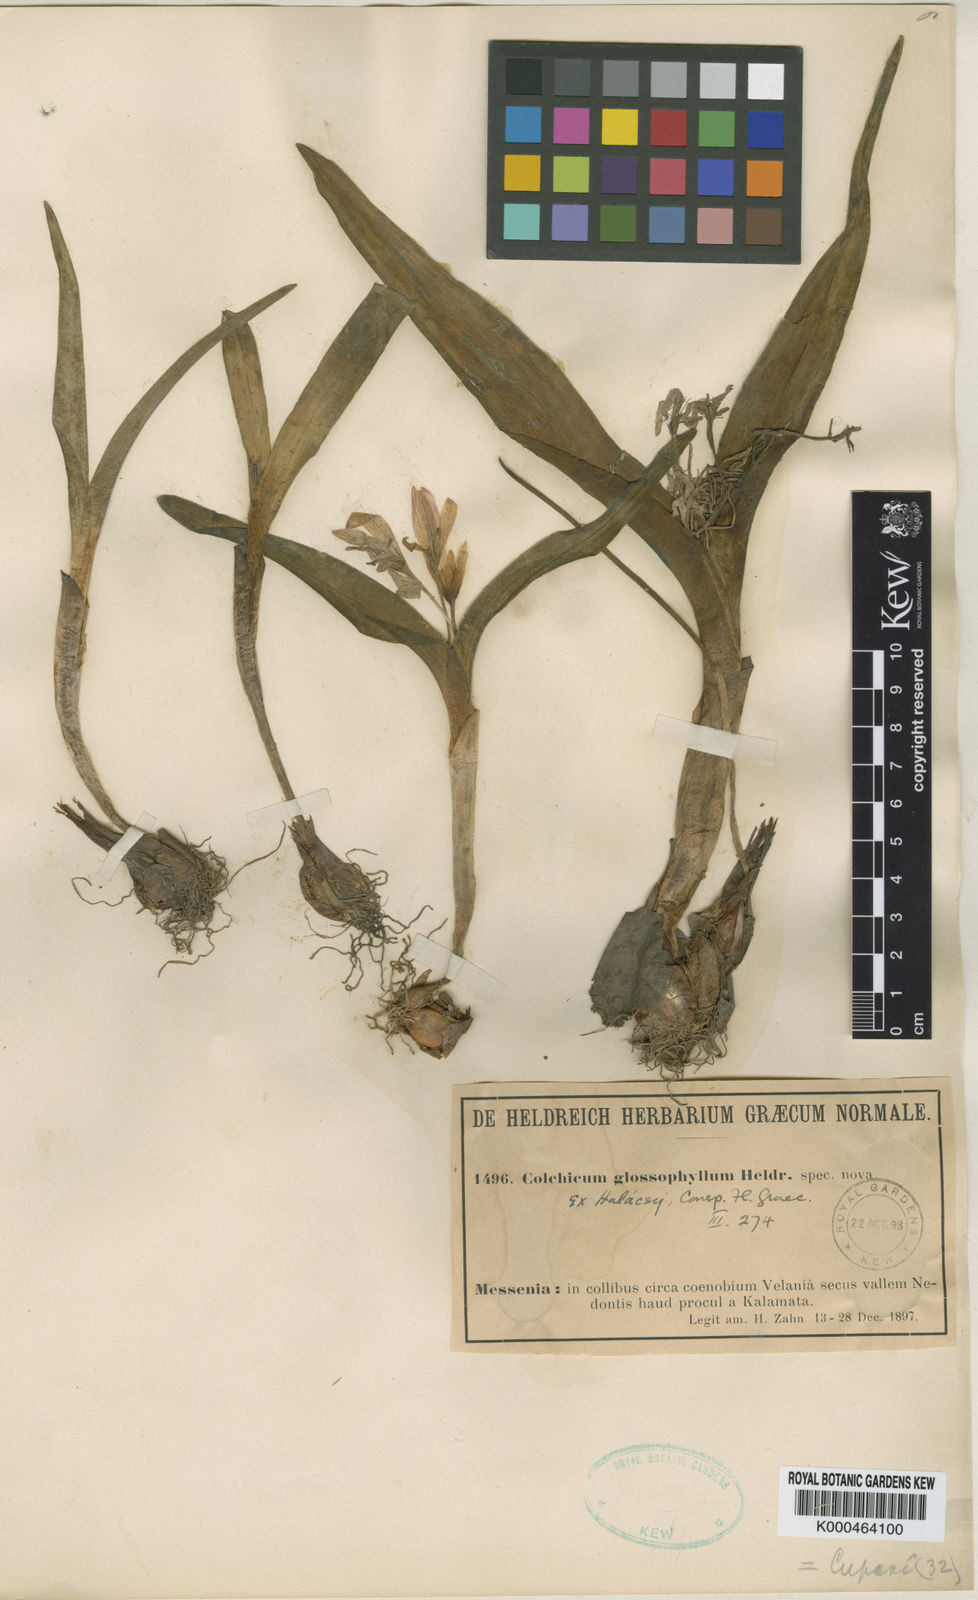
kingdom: Plantae
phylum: Tracheophyta
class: Liliopsida
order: Liliales
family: Colchicaceae
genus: Colchicum
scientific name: Colchicum cupanii
